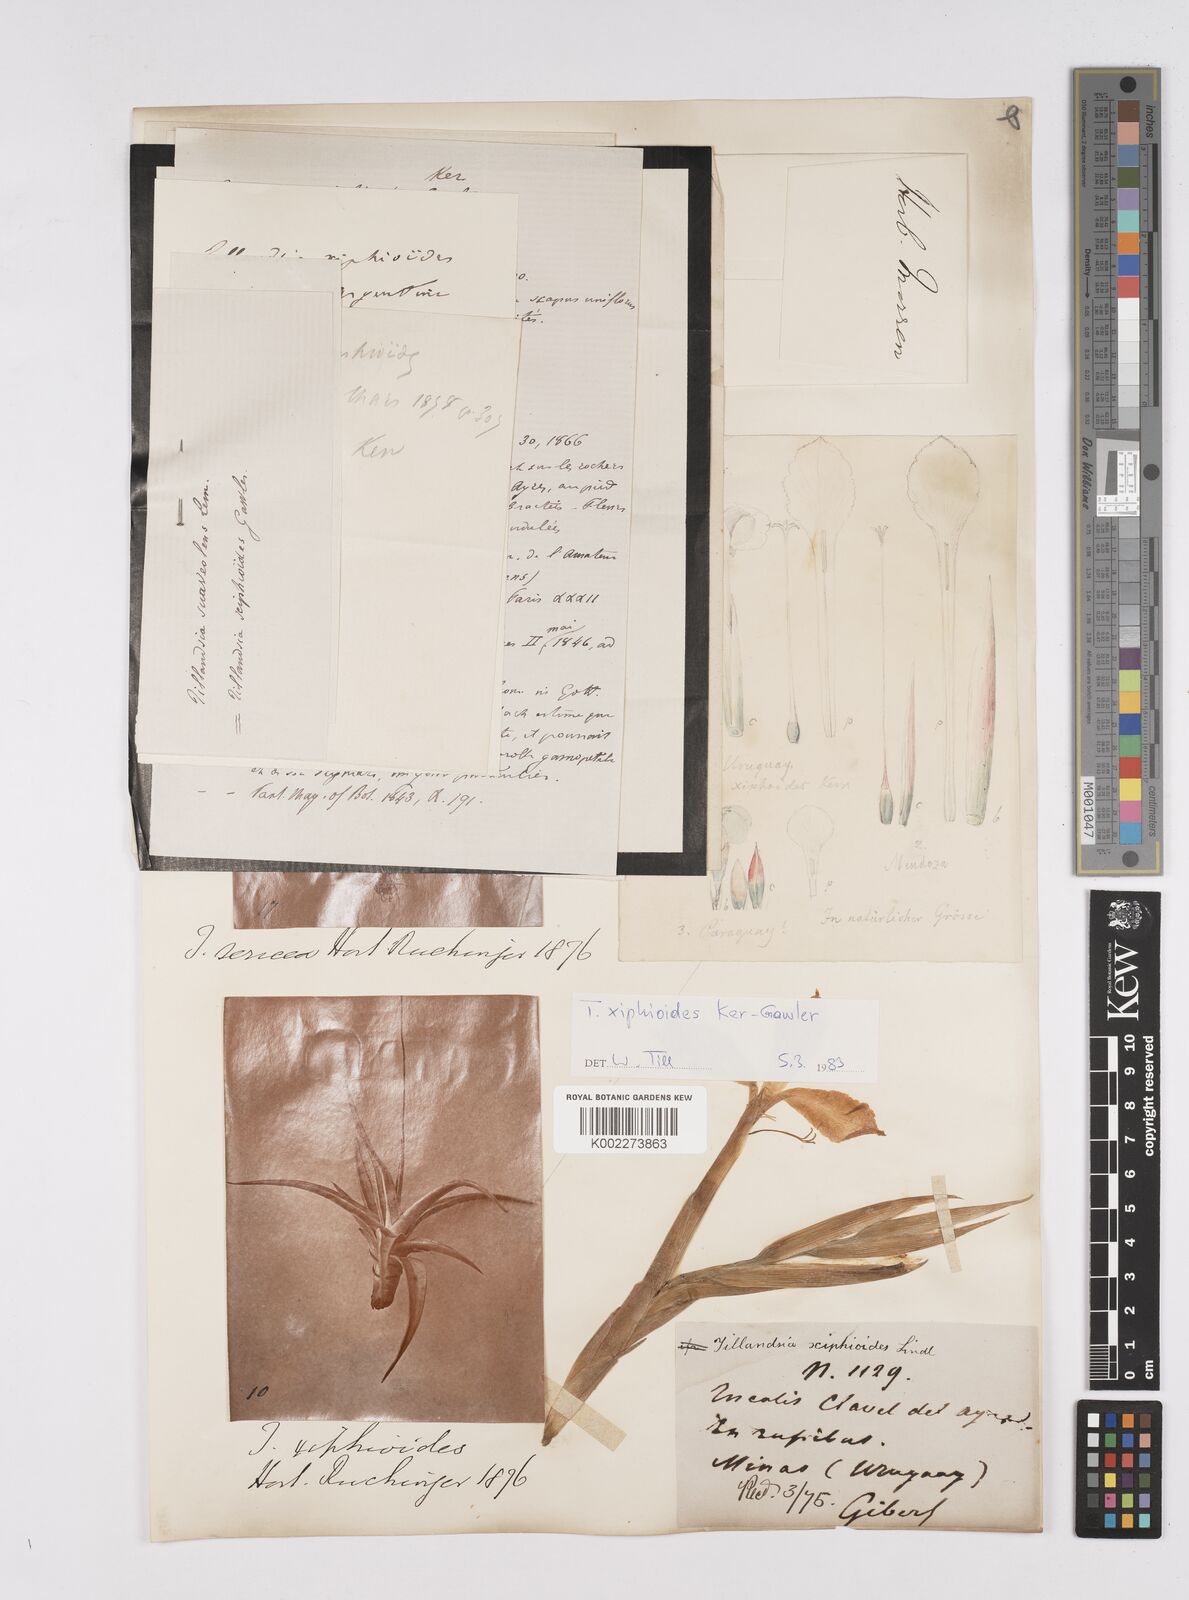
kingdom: Plantae
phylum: Tracheophyta
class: Liliopsida
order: Poales
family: Bromeliaceae
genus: Tillandsia
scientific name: Tillandsia xiphioides
